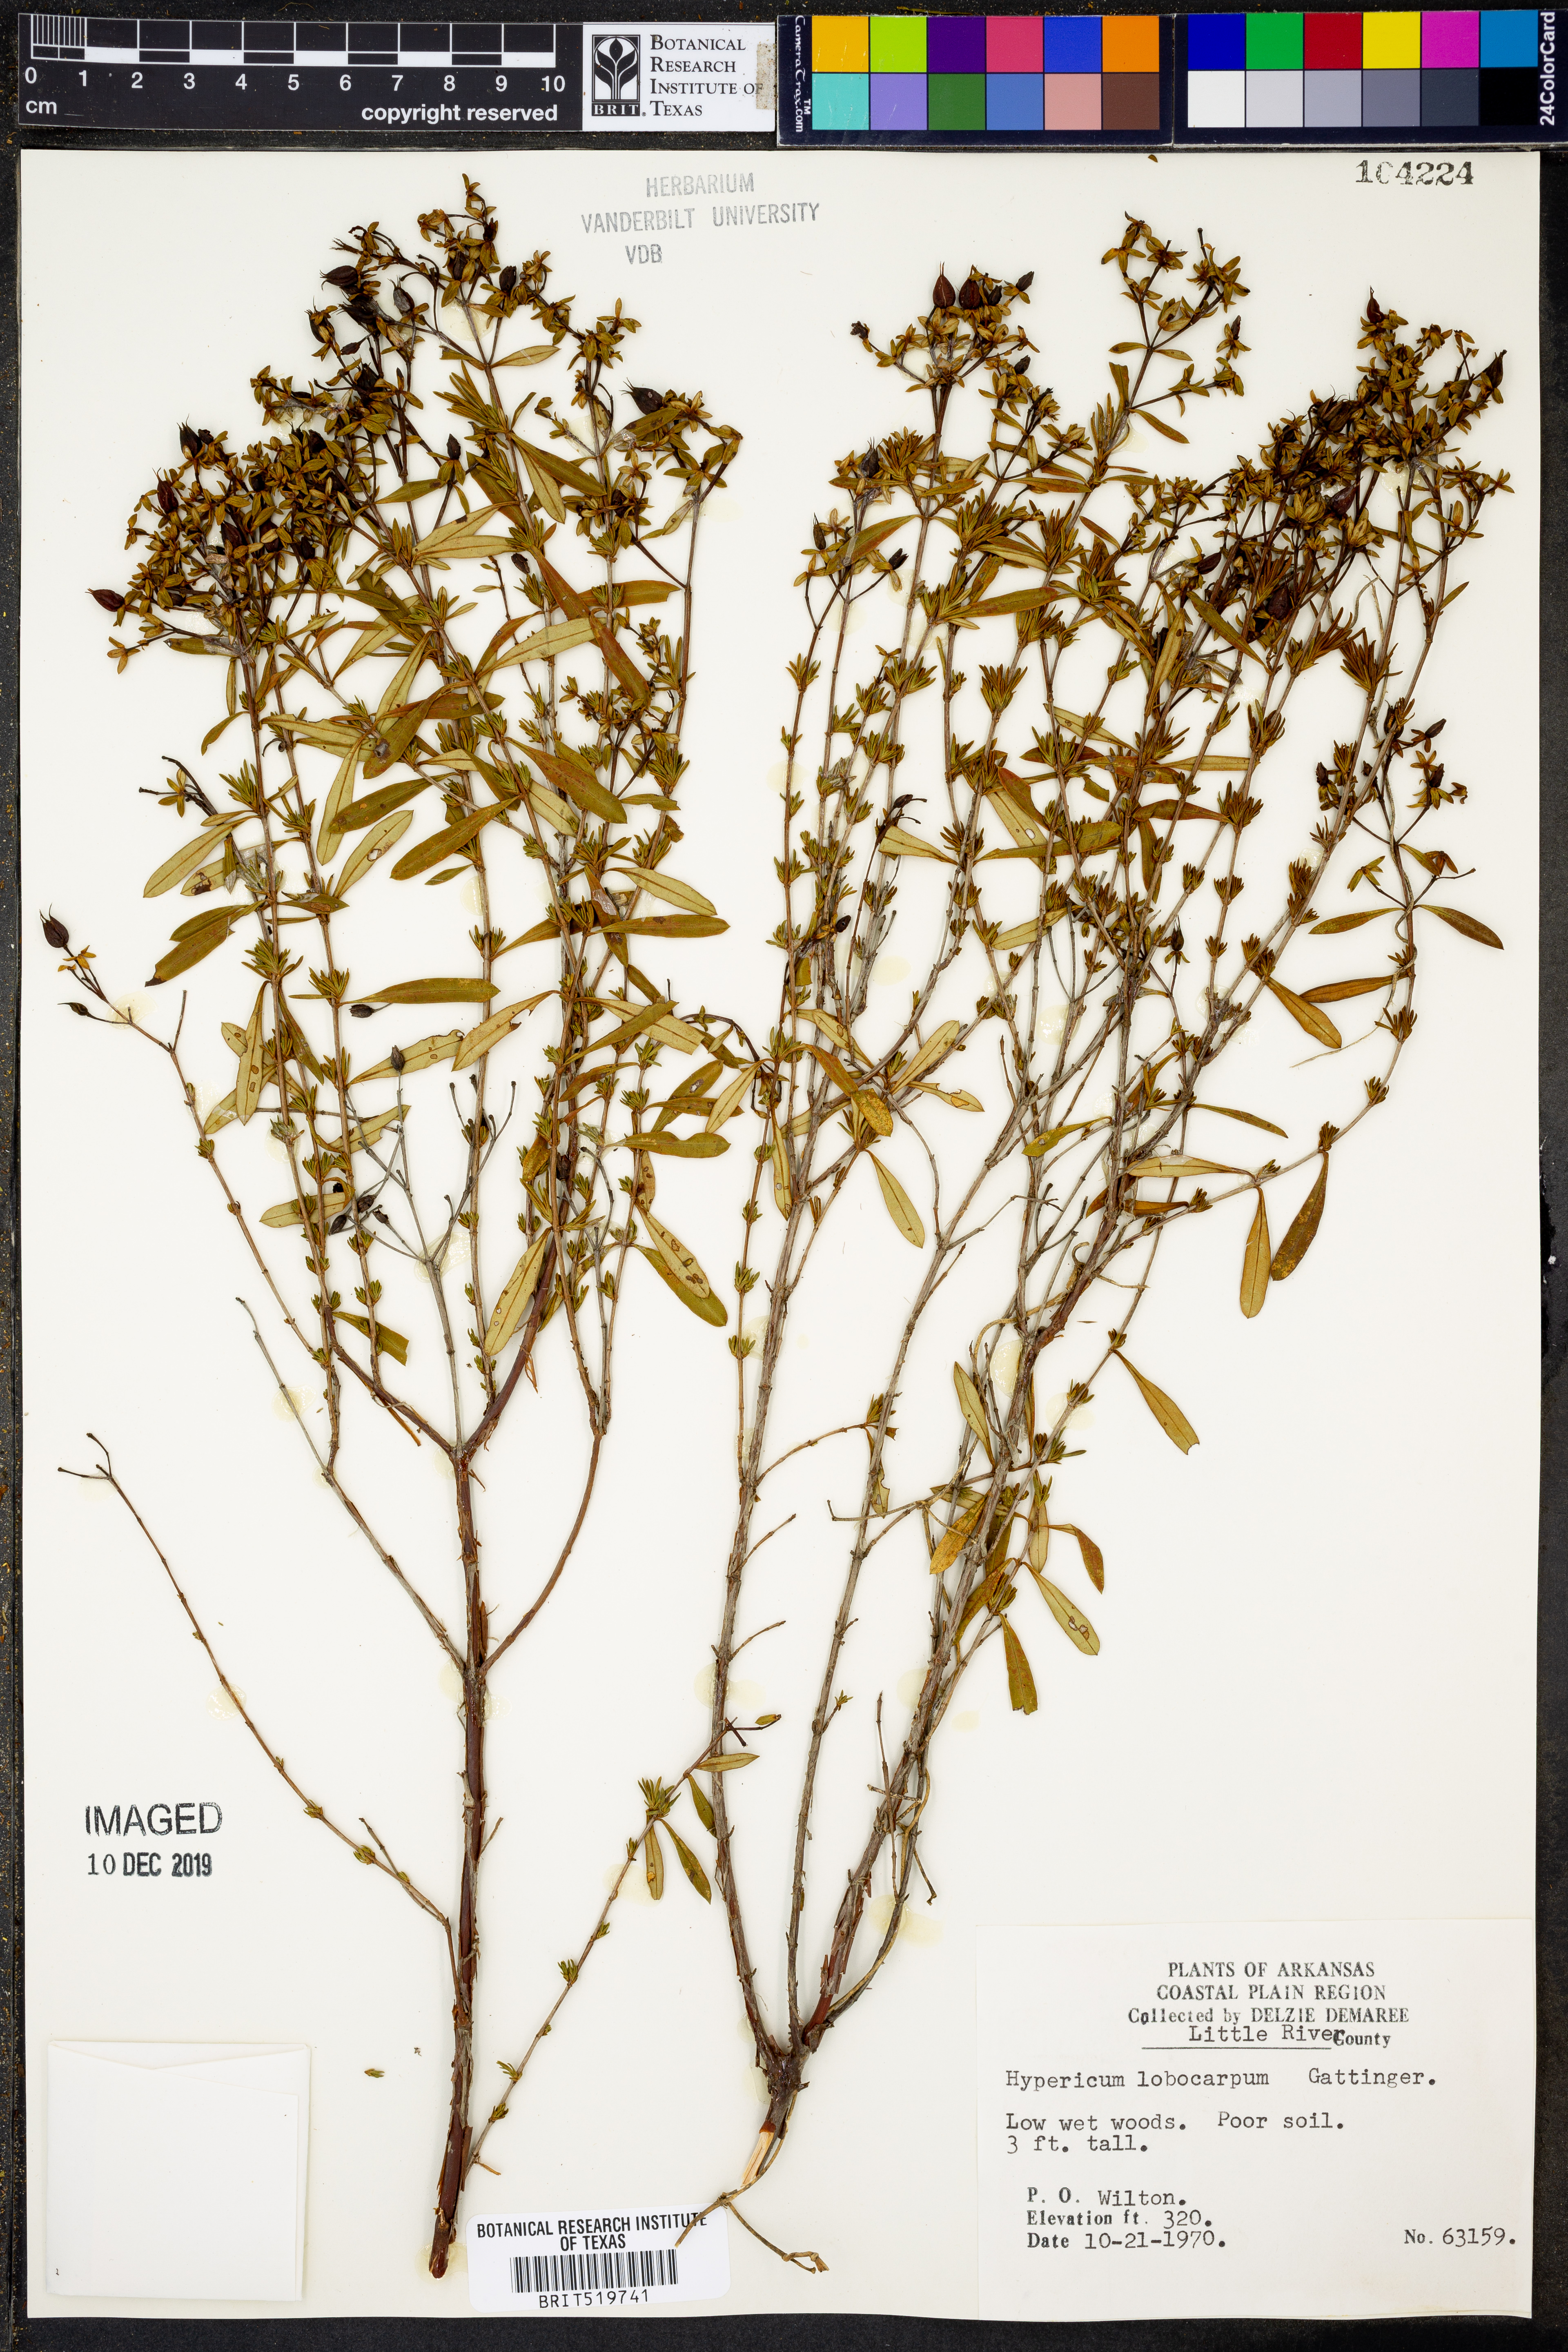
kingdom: Plantae
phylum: Tracheophyta
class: Magnoliopsida
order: Malpighiales
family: Hypericaceae
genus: Hypericum
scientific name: Hypericum lobocarpum
